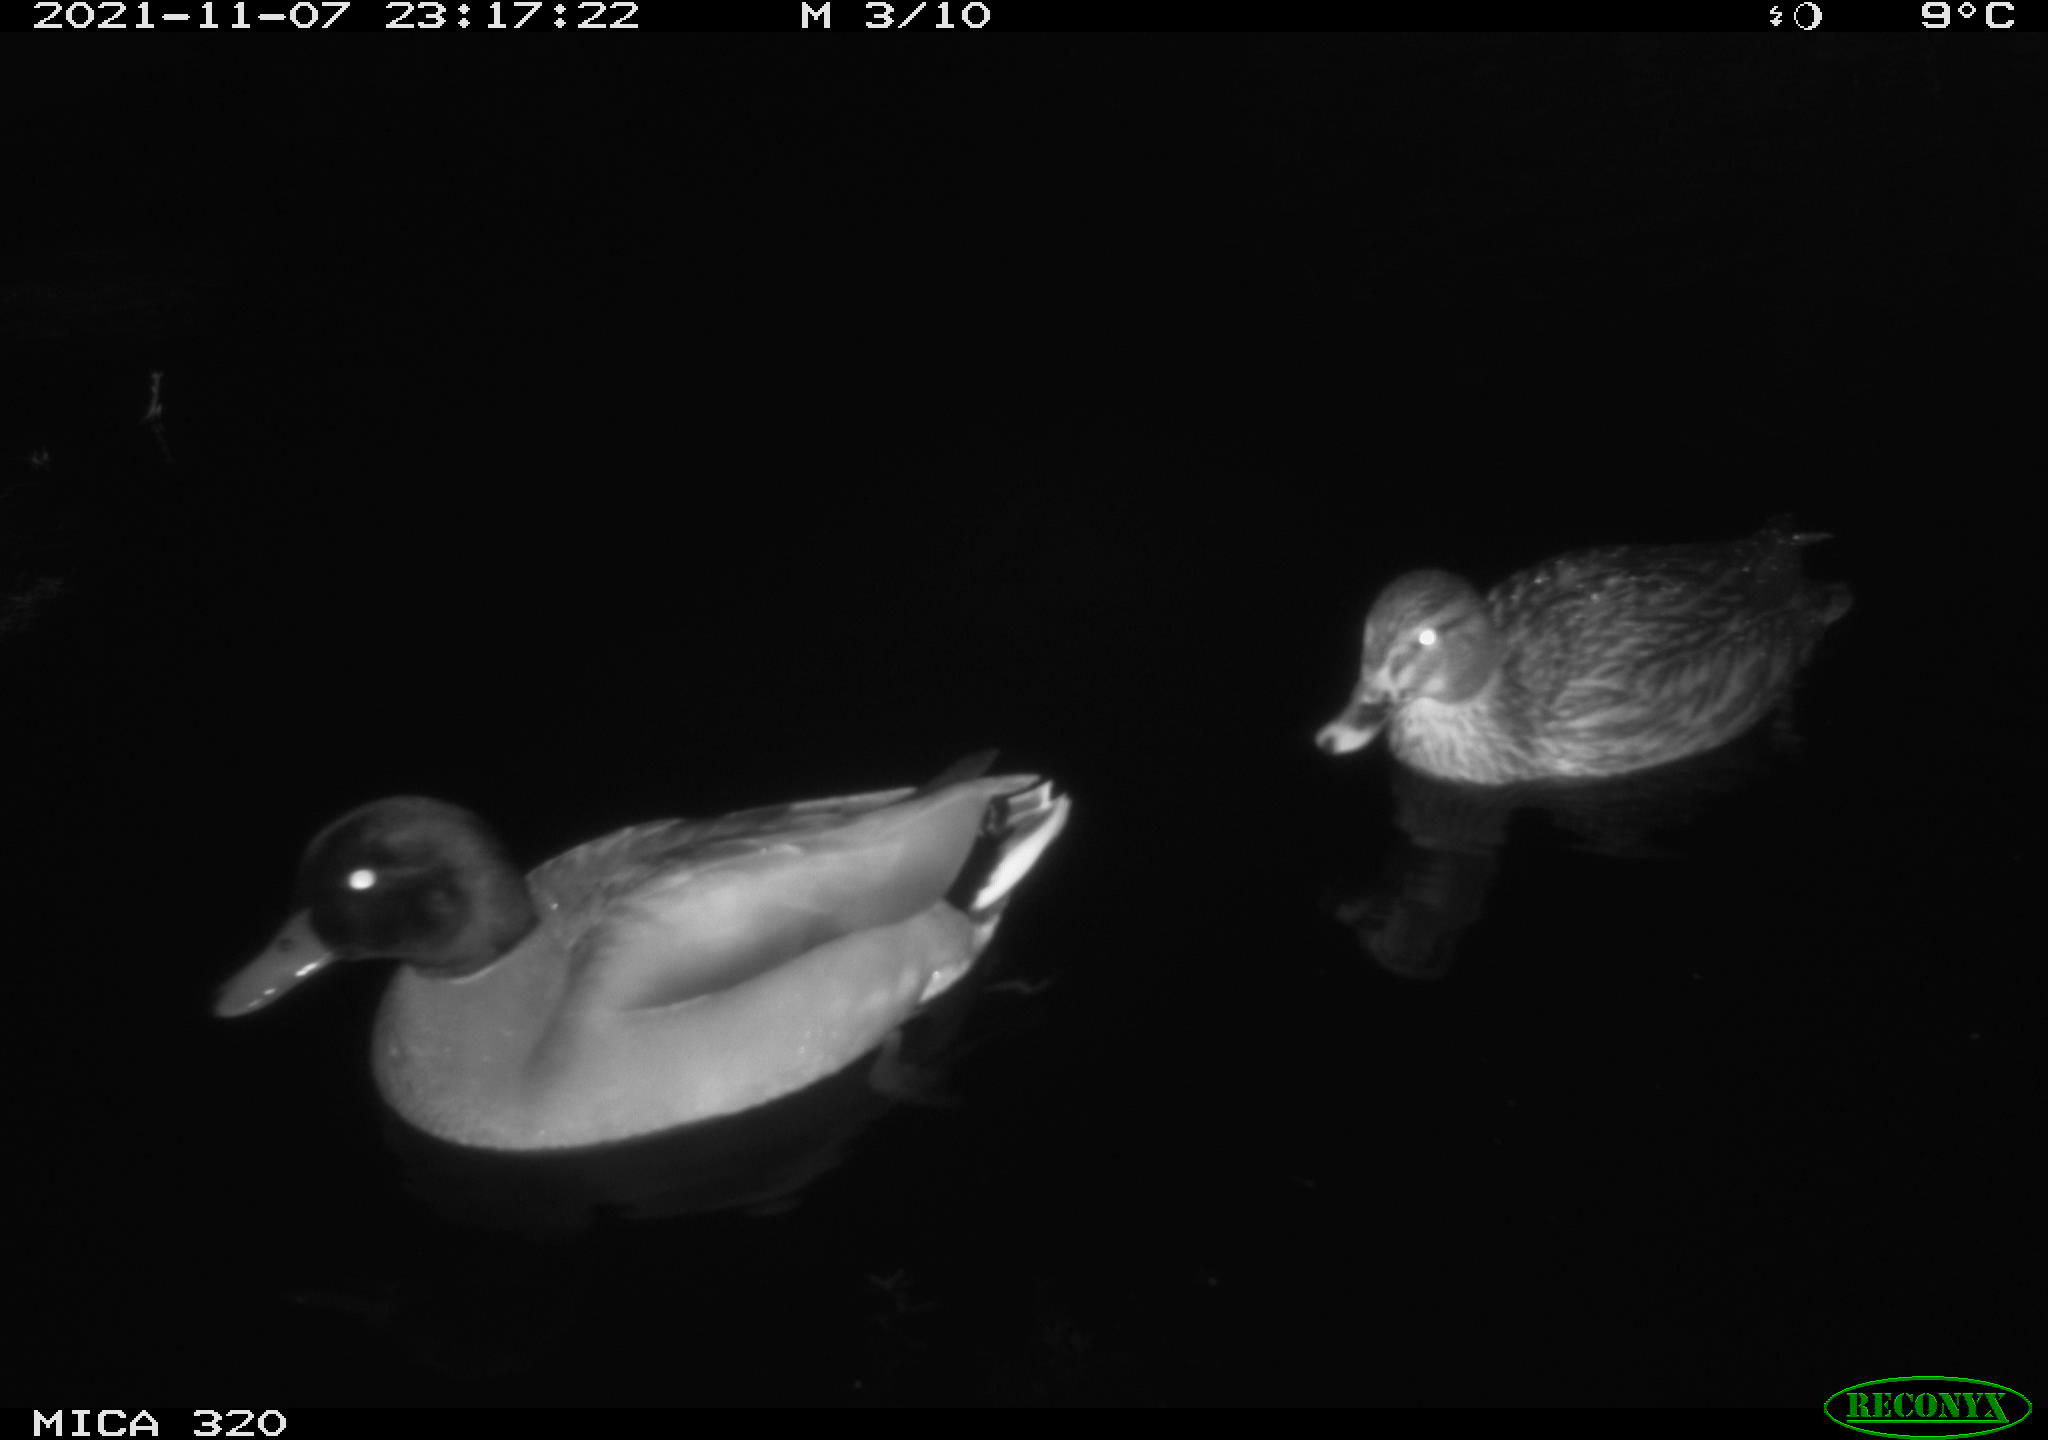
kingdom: Animalia
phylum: Chordata
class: Aves
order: Anseriformes
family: Anatidae
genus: Anas
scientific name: Anas platyrhynchos
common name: Mallard
